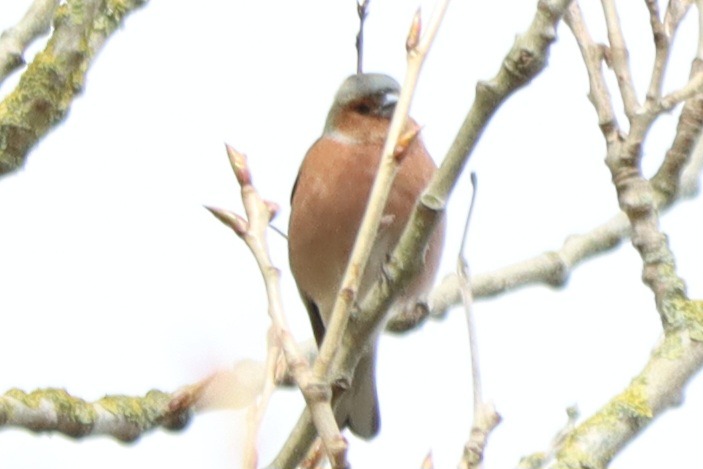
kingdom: Animalia
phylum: Chordata
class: Aves
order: Passeriformes
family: Fringillidae
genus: Fringilla
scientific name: Fringilla coelebs
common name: Bogfinke
